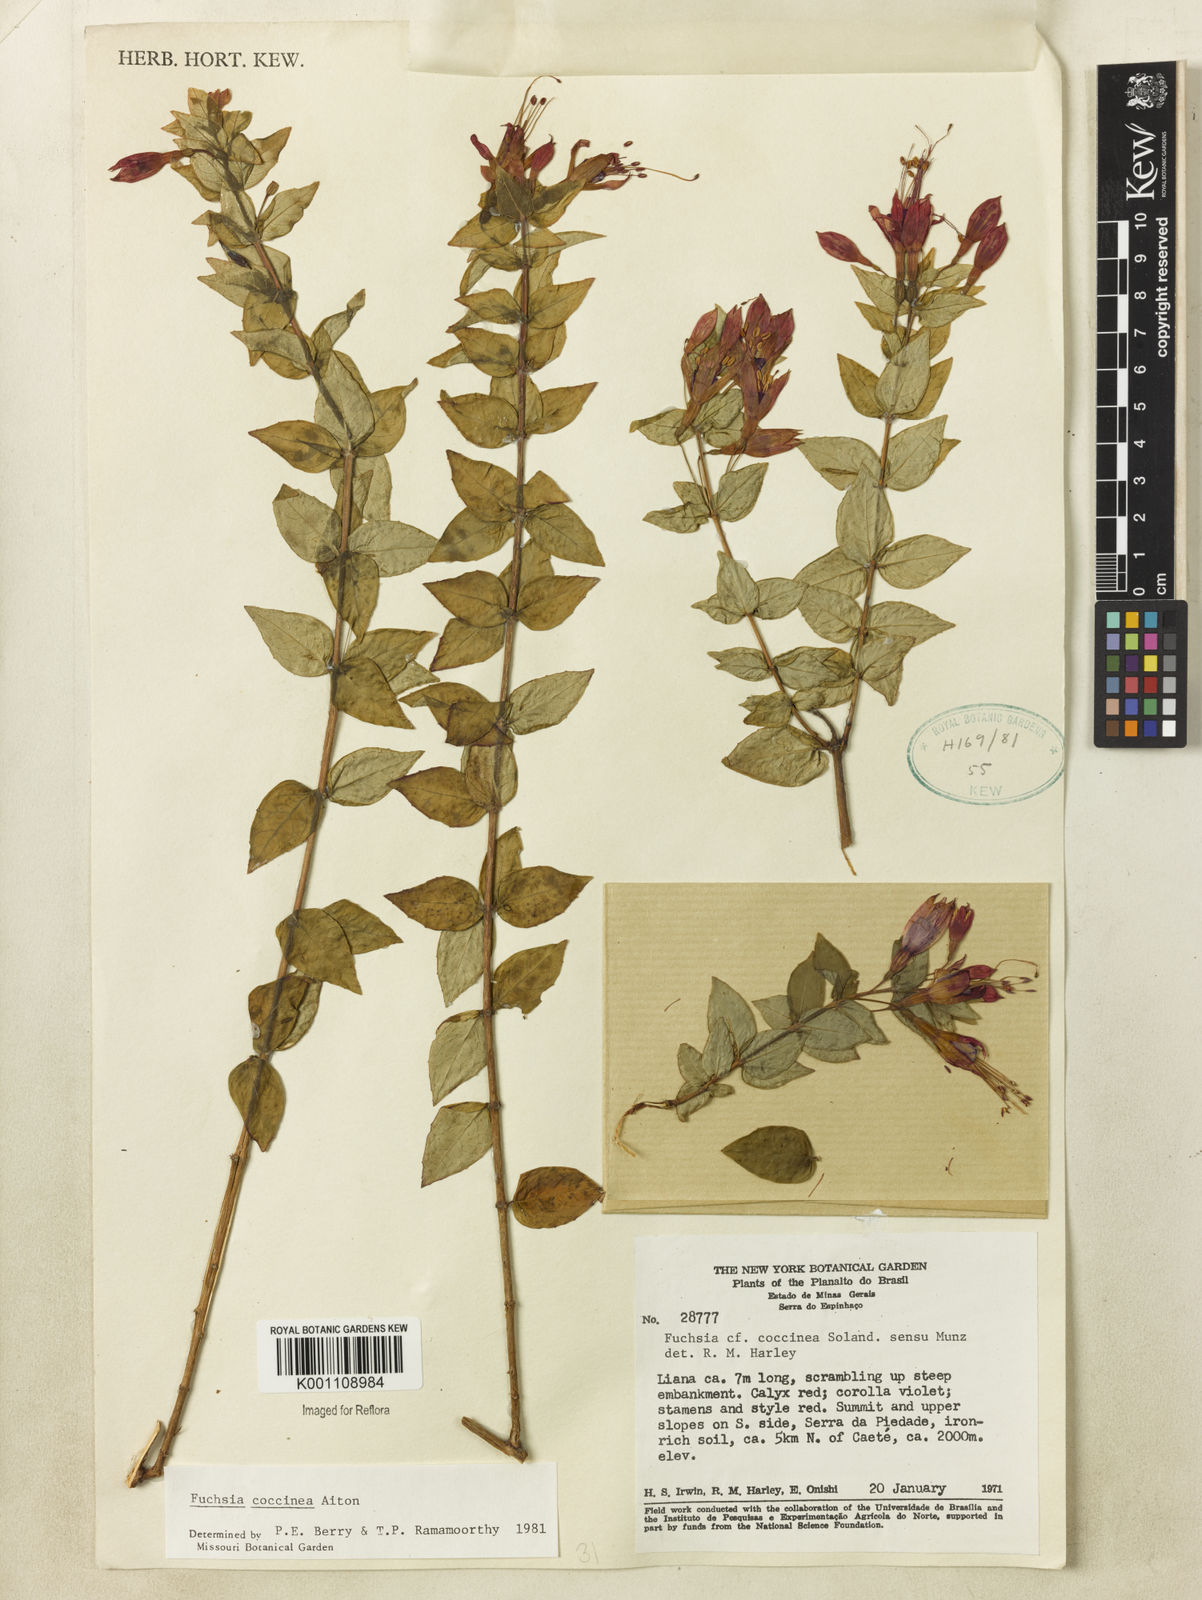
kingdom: Plantae
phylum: Tracheophyta
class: Magnoliopsida
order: Myrtales
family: Onagraceae
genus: Fuchsia
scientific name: Fuchsia
